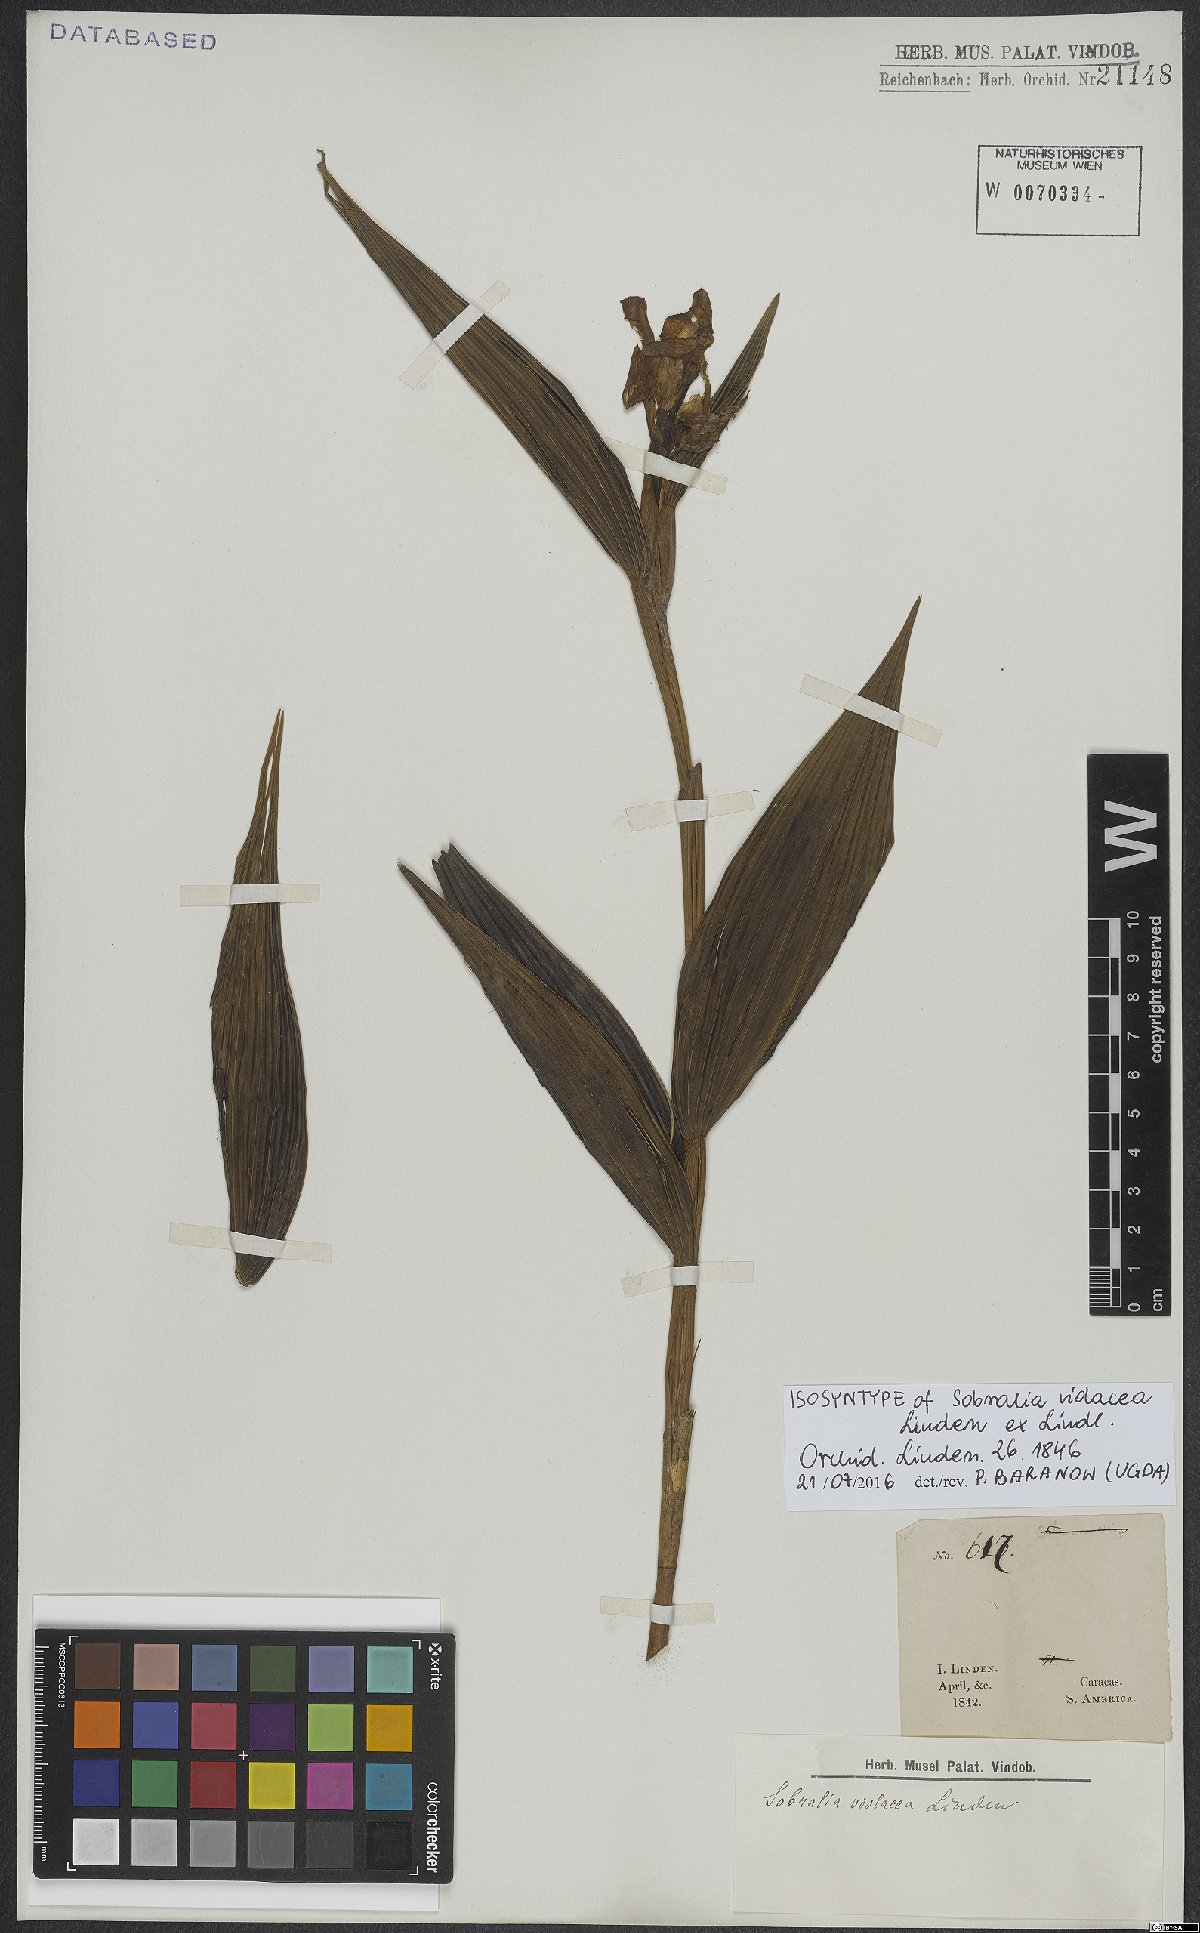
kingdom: Plantae
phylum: Tracheophyta
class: Liliopsida
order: Asparagales
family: Orchidaceae
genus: Sobralia
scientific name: Sobralia violacea
